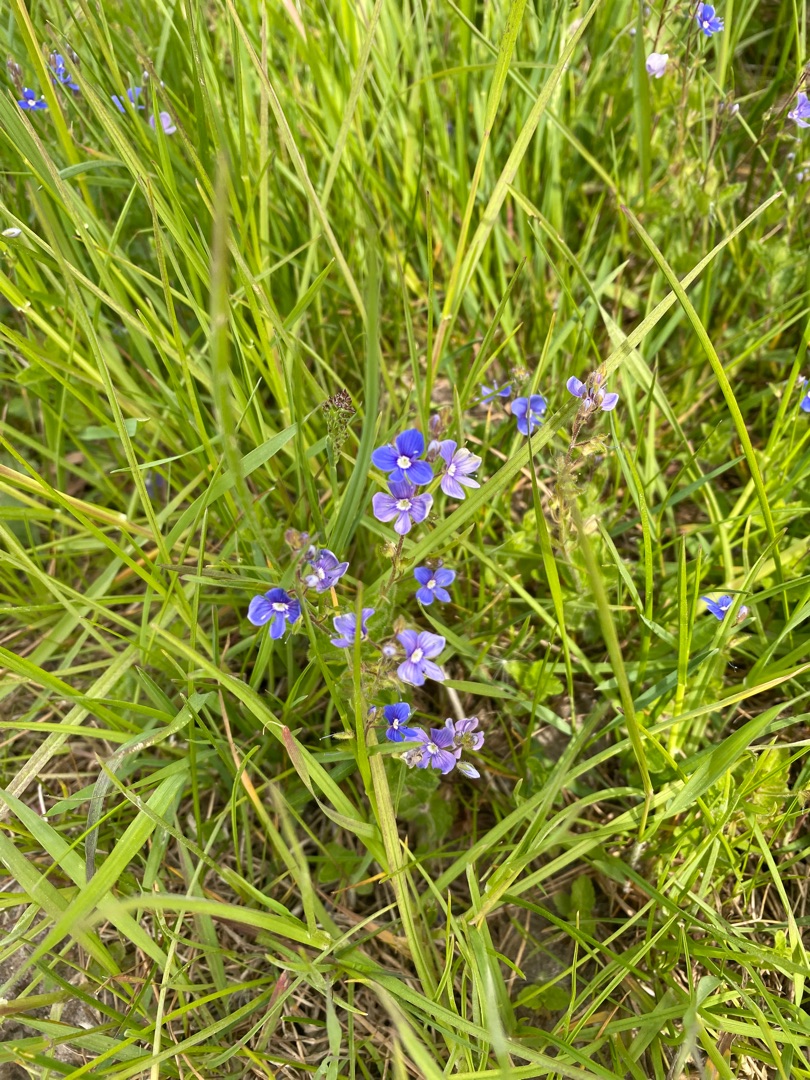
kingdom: Plantae
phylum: Tracheophyta
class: Magnoliopsida
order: Lamiales
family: Plantaginaceae
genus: Veronica
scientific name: Veronica chamaedrys
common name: Tveskægget ærenpris
